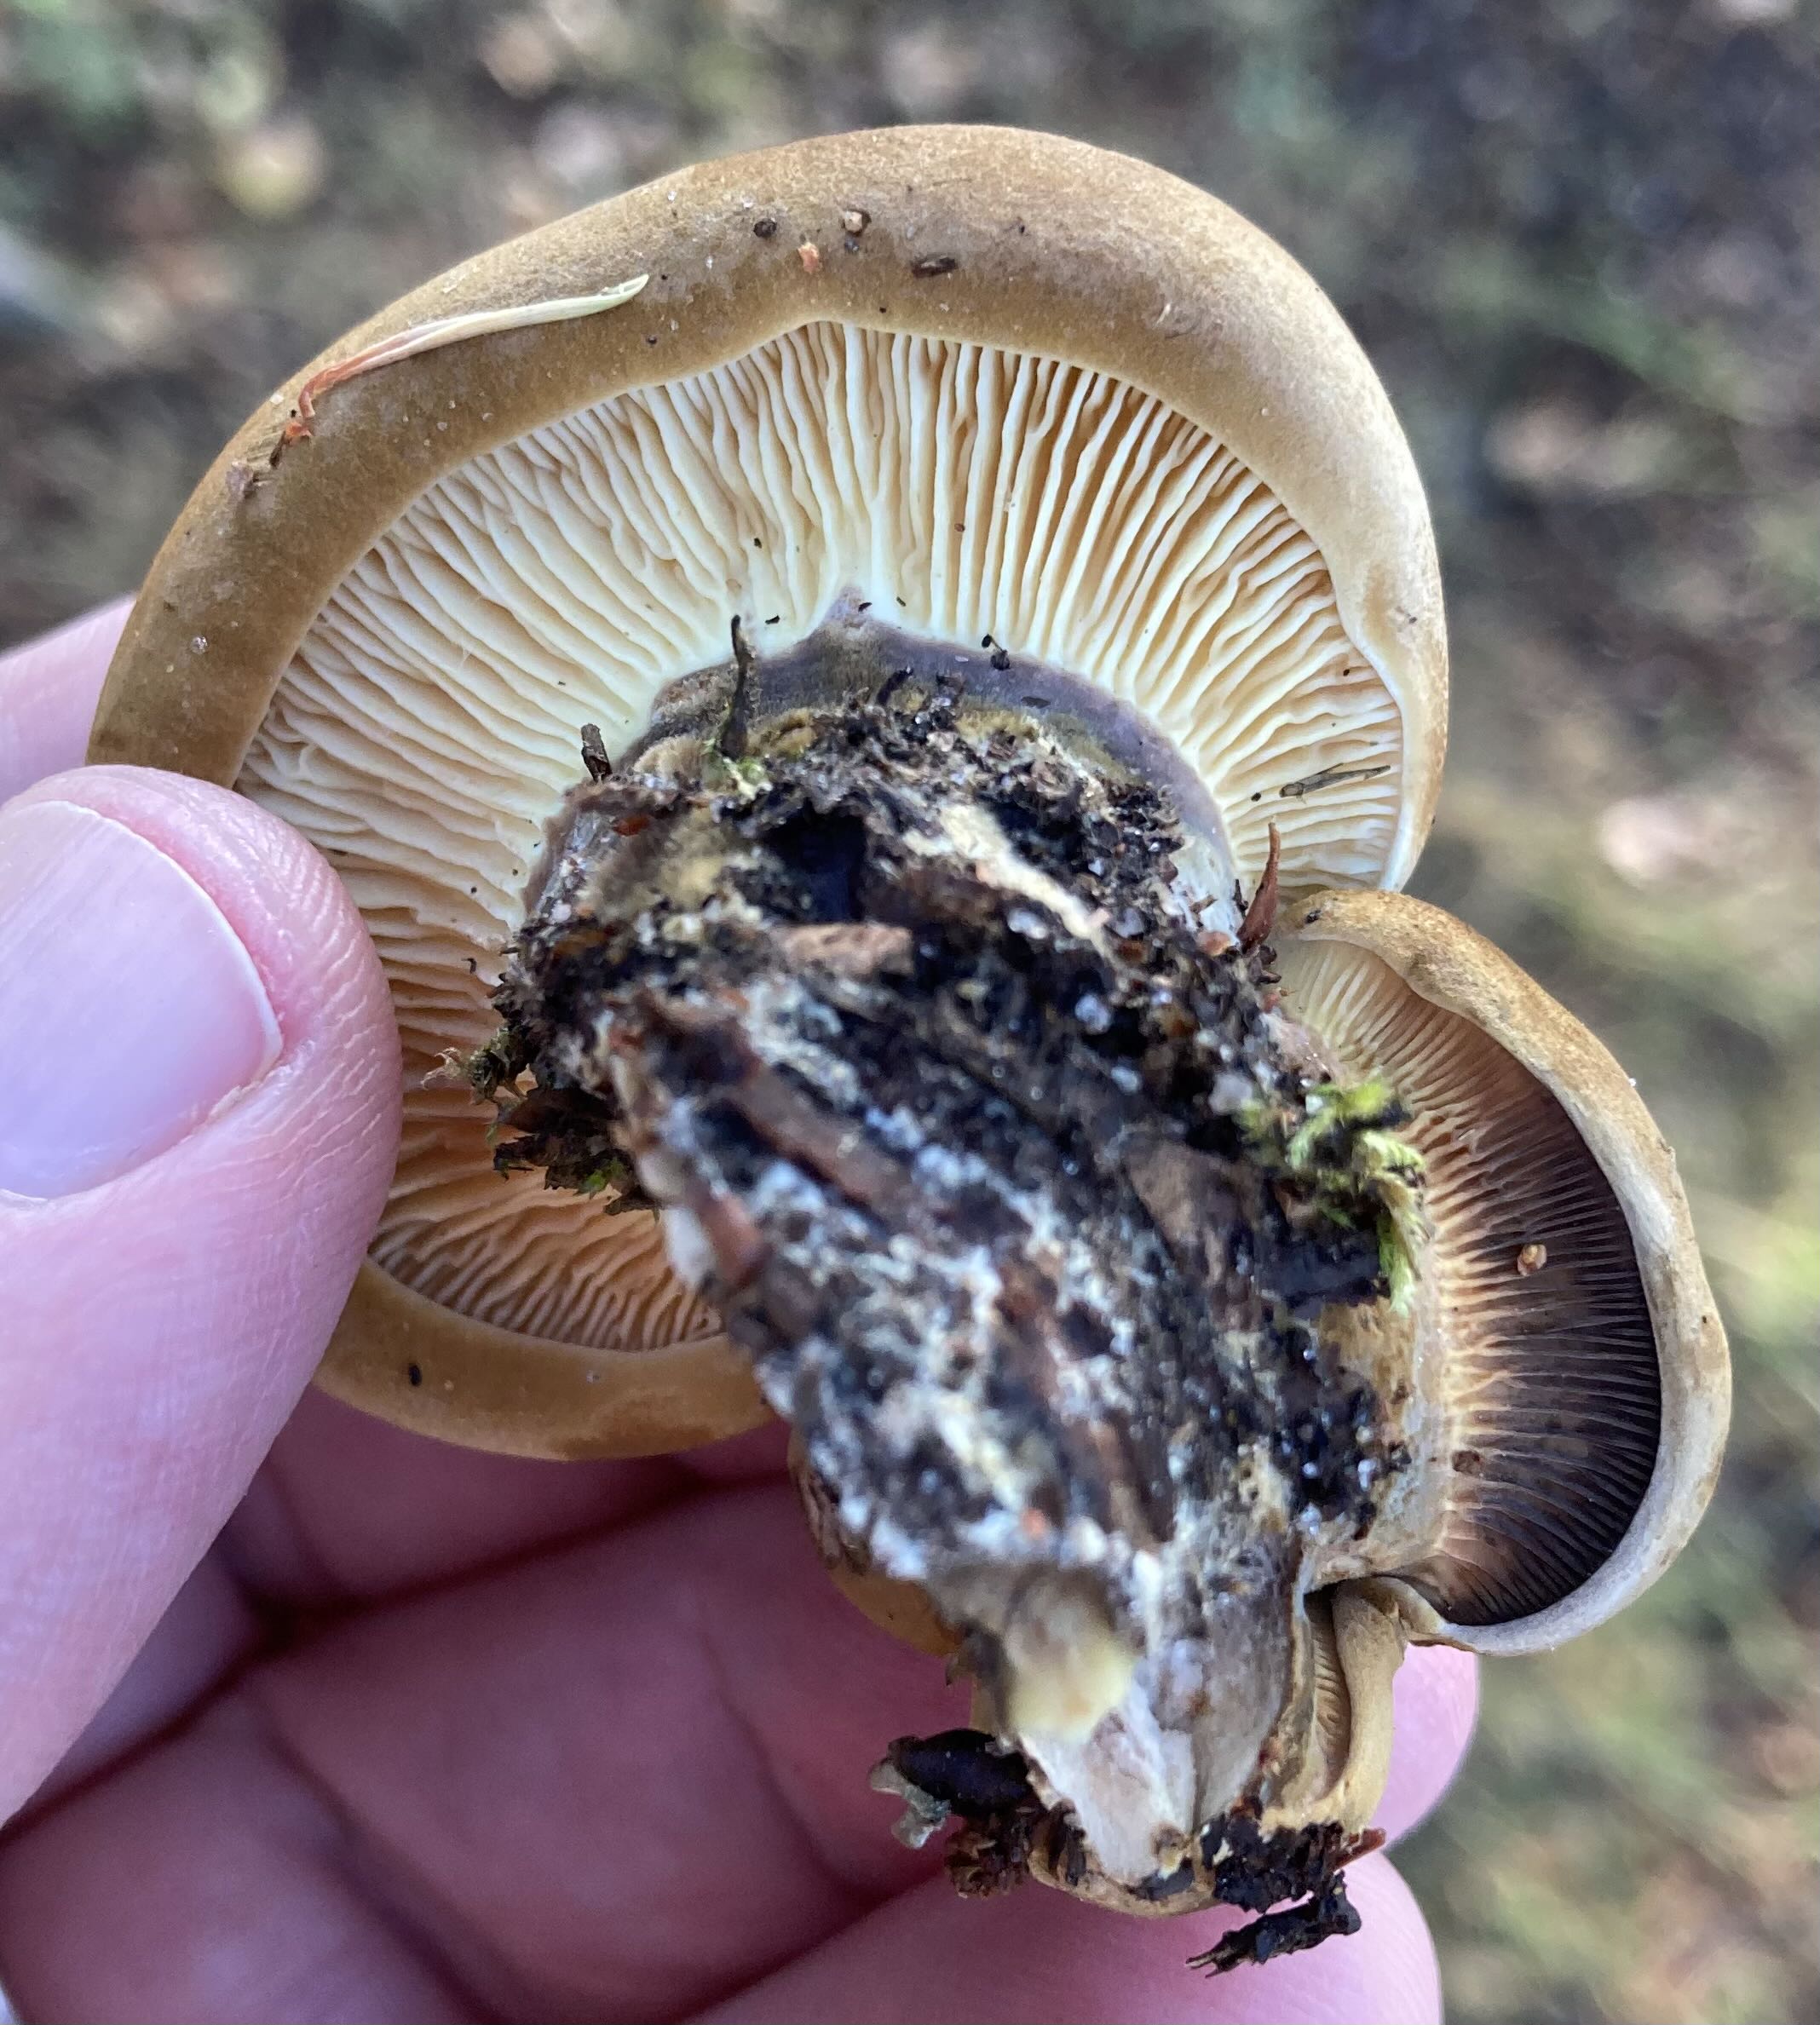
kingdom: Fungi
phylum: Basidiomycota
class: Agaricomycetes
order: Boletales
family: Tapinellaceae
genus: Tapinella
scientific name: Tapinella atrotomentosa
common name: sortfiltet viftesvamp
